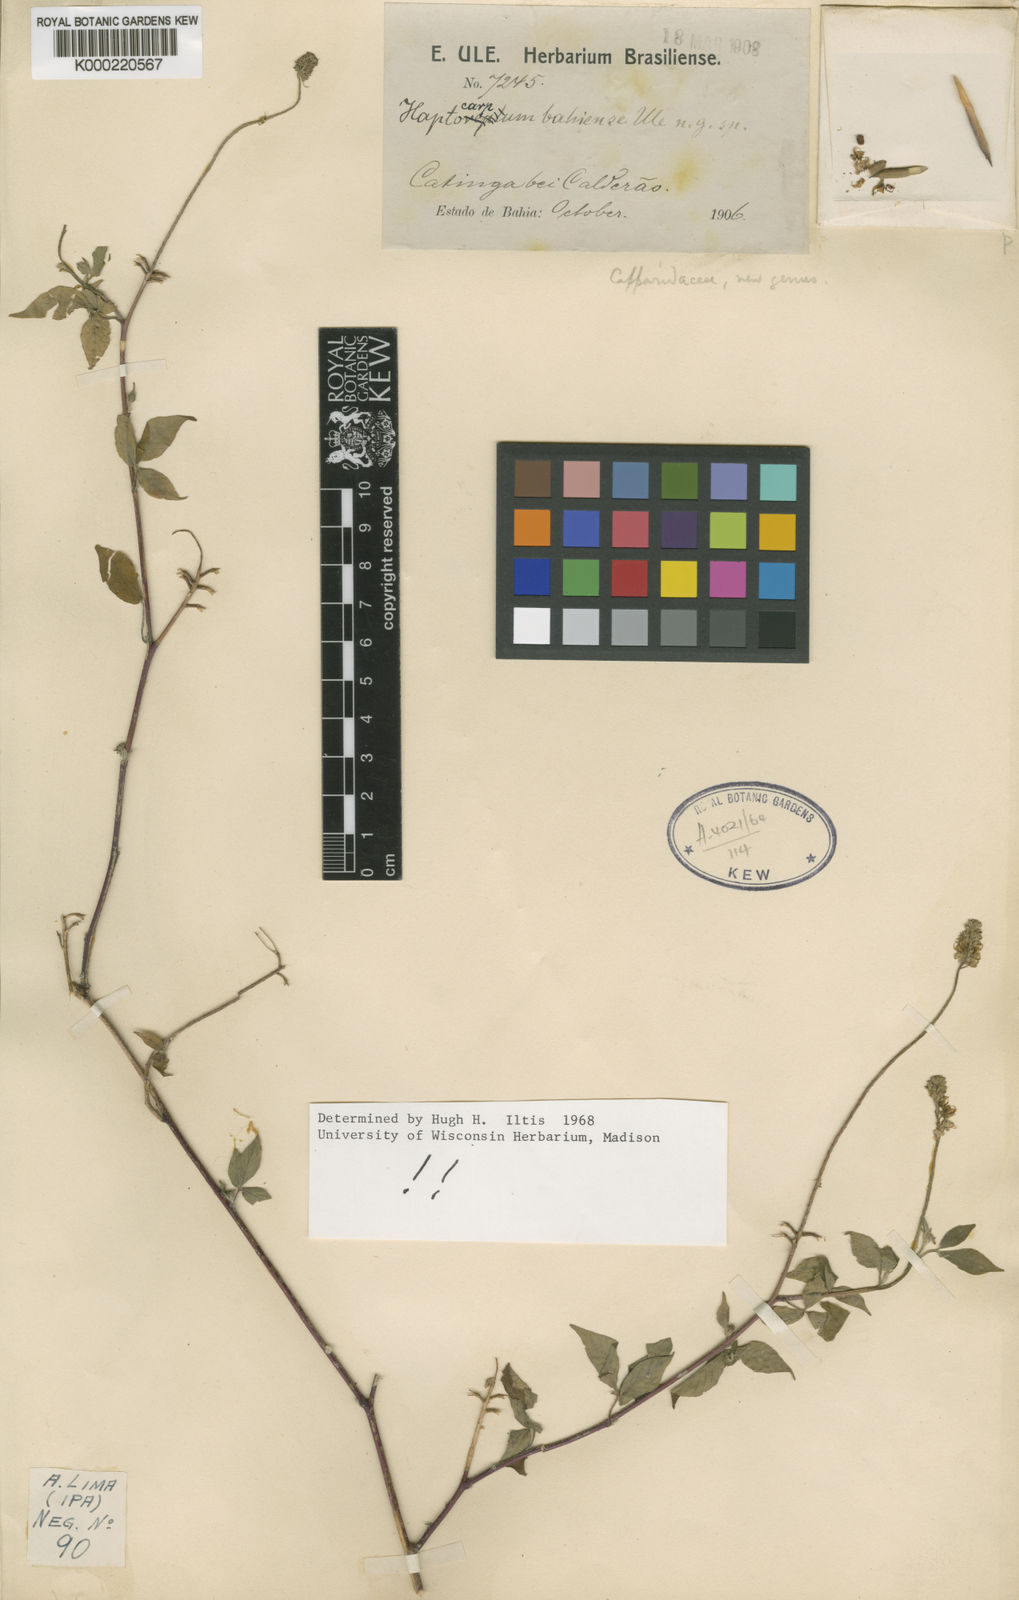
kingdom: Plantae
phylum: Tracheophyta
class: Magnoliopsida
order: Brassicales
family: Cleomaceae
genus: Haptocarpum
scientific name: Haptocarpum bahiense
